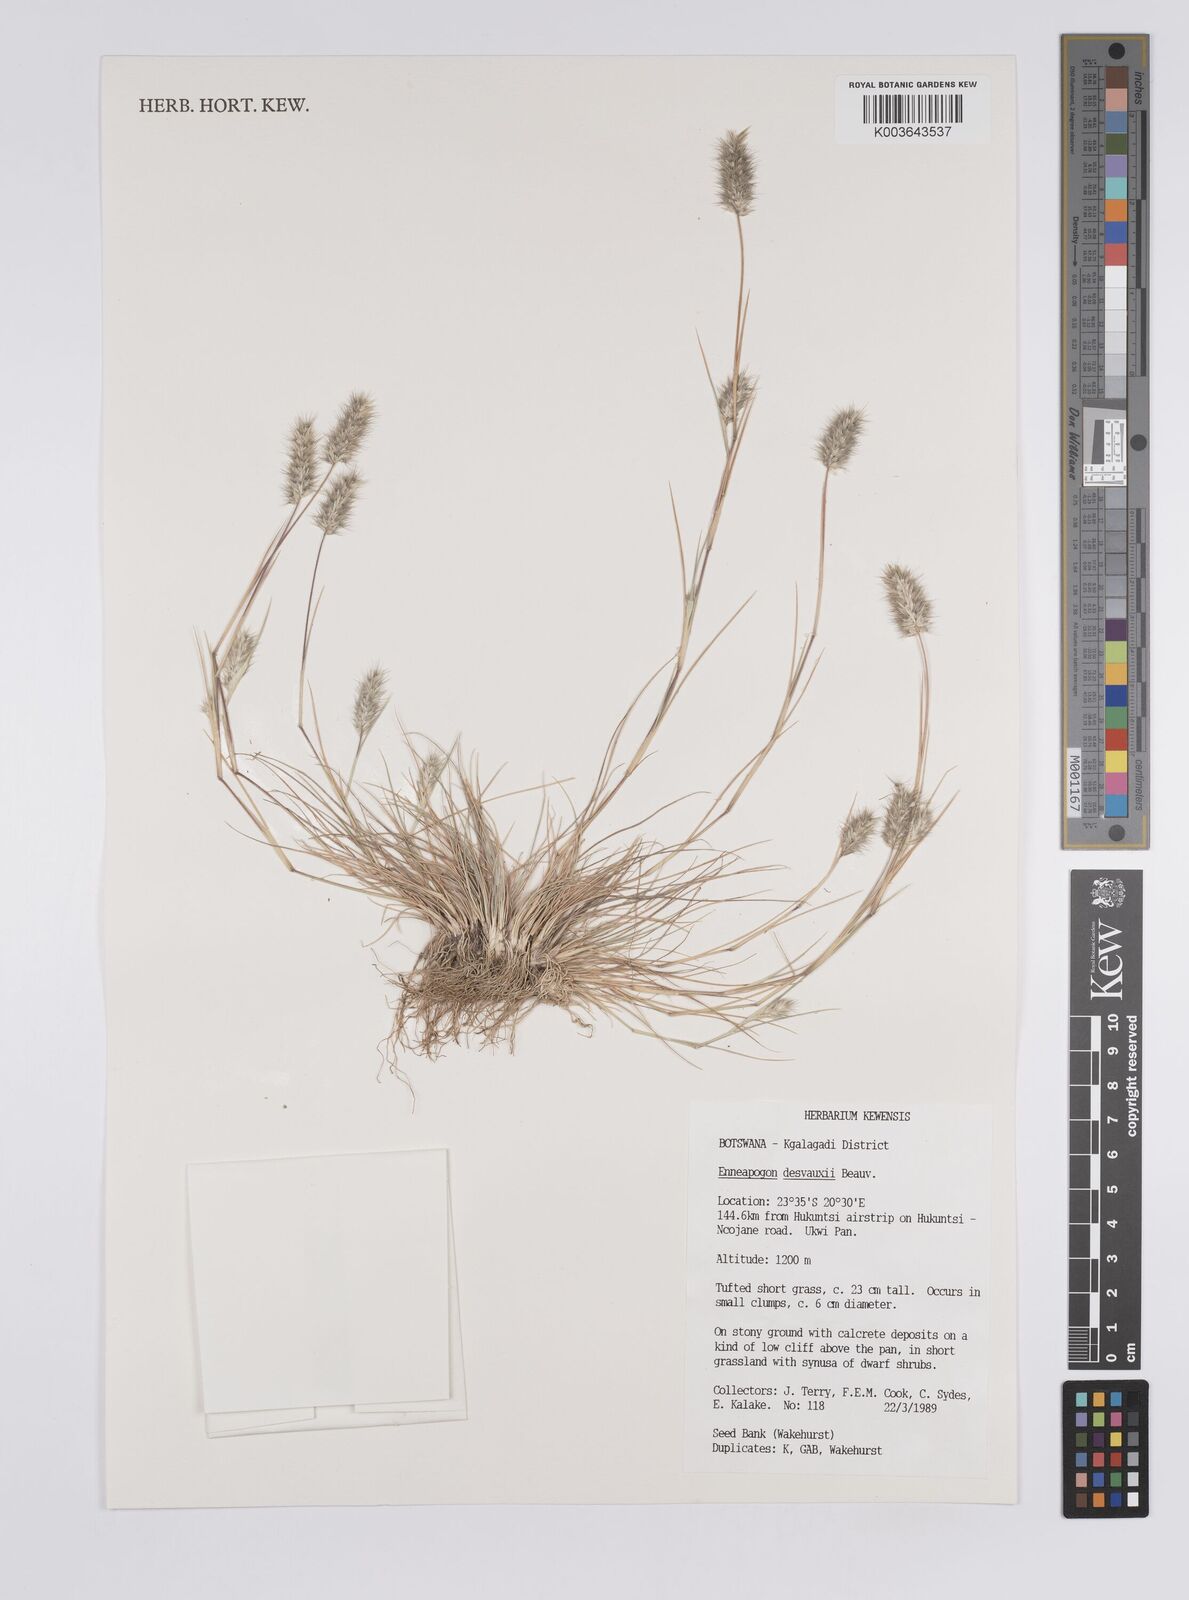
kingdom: Plantae
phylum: Tracheophyta
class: Liliopsida
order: Poales
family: Poaceae
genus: Enneapogon
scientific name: Enneapogon desvauxii
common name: Feather pappus grass
